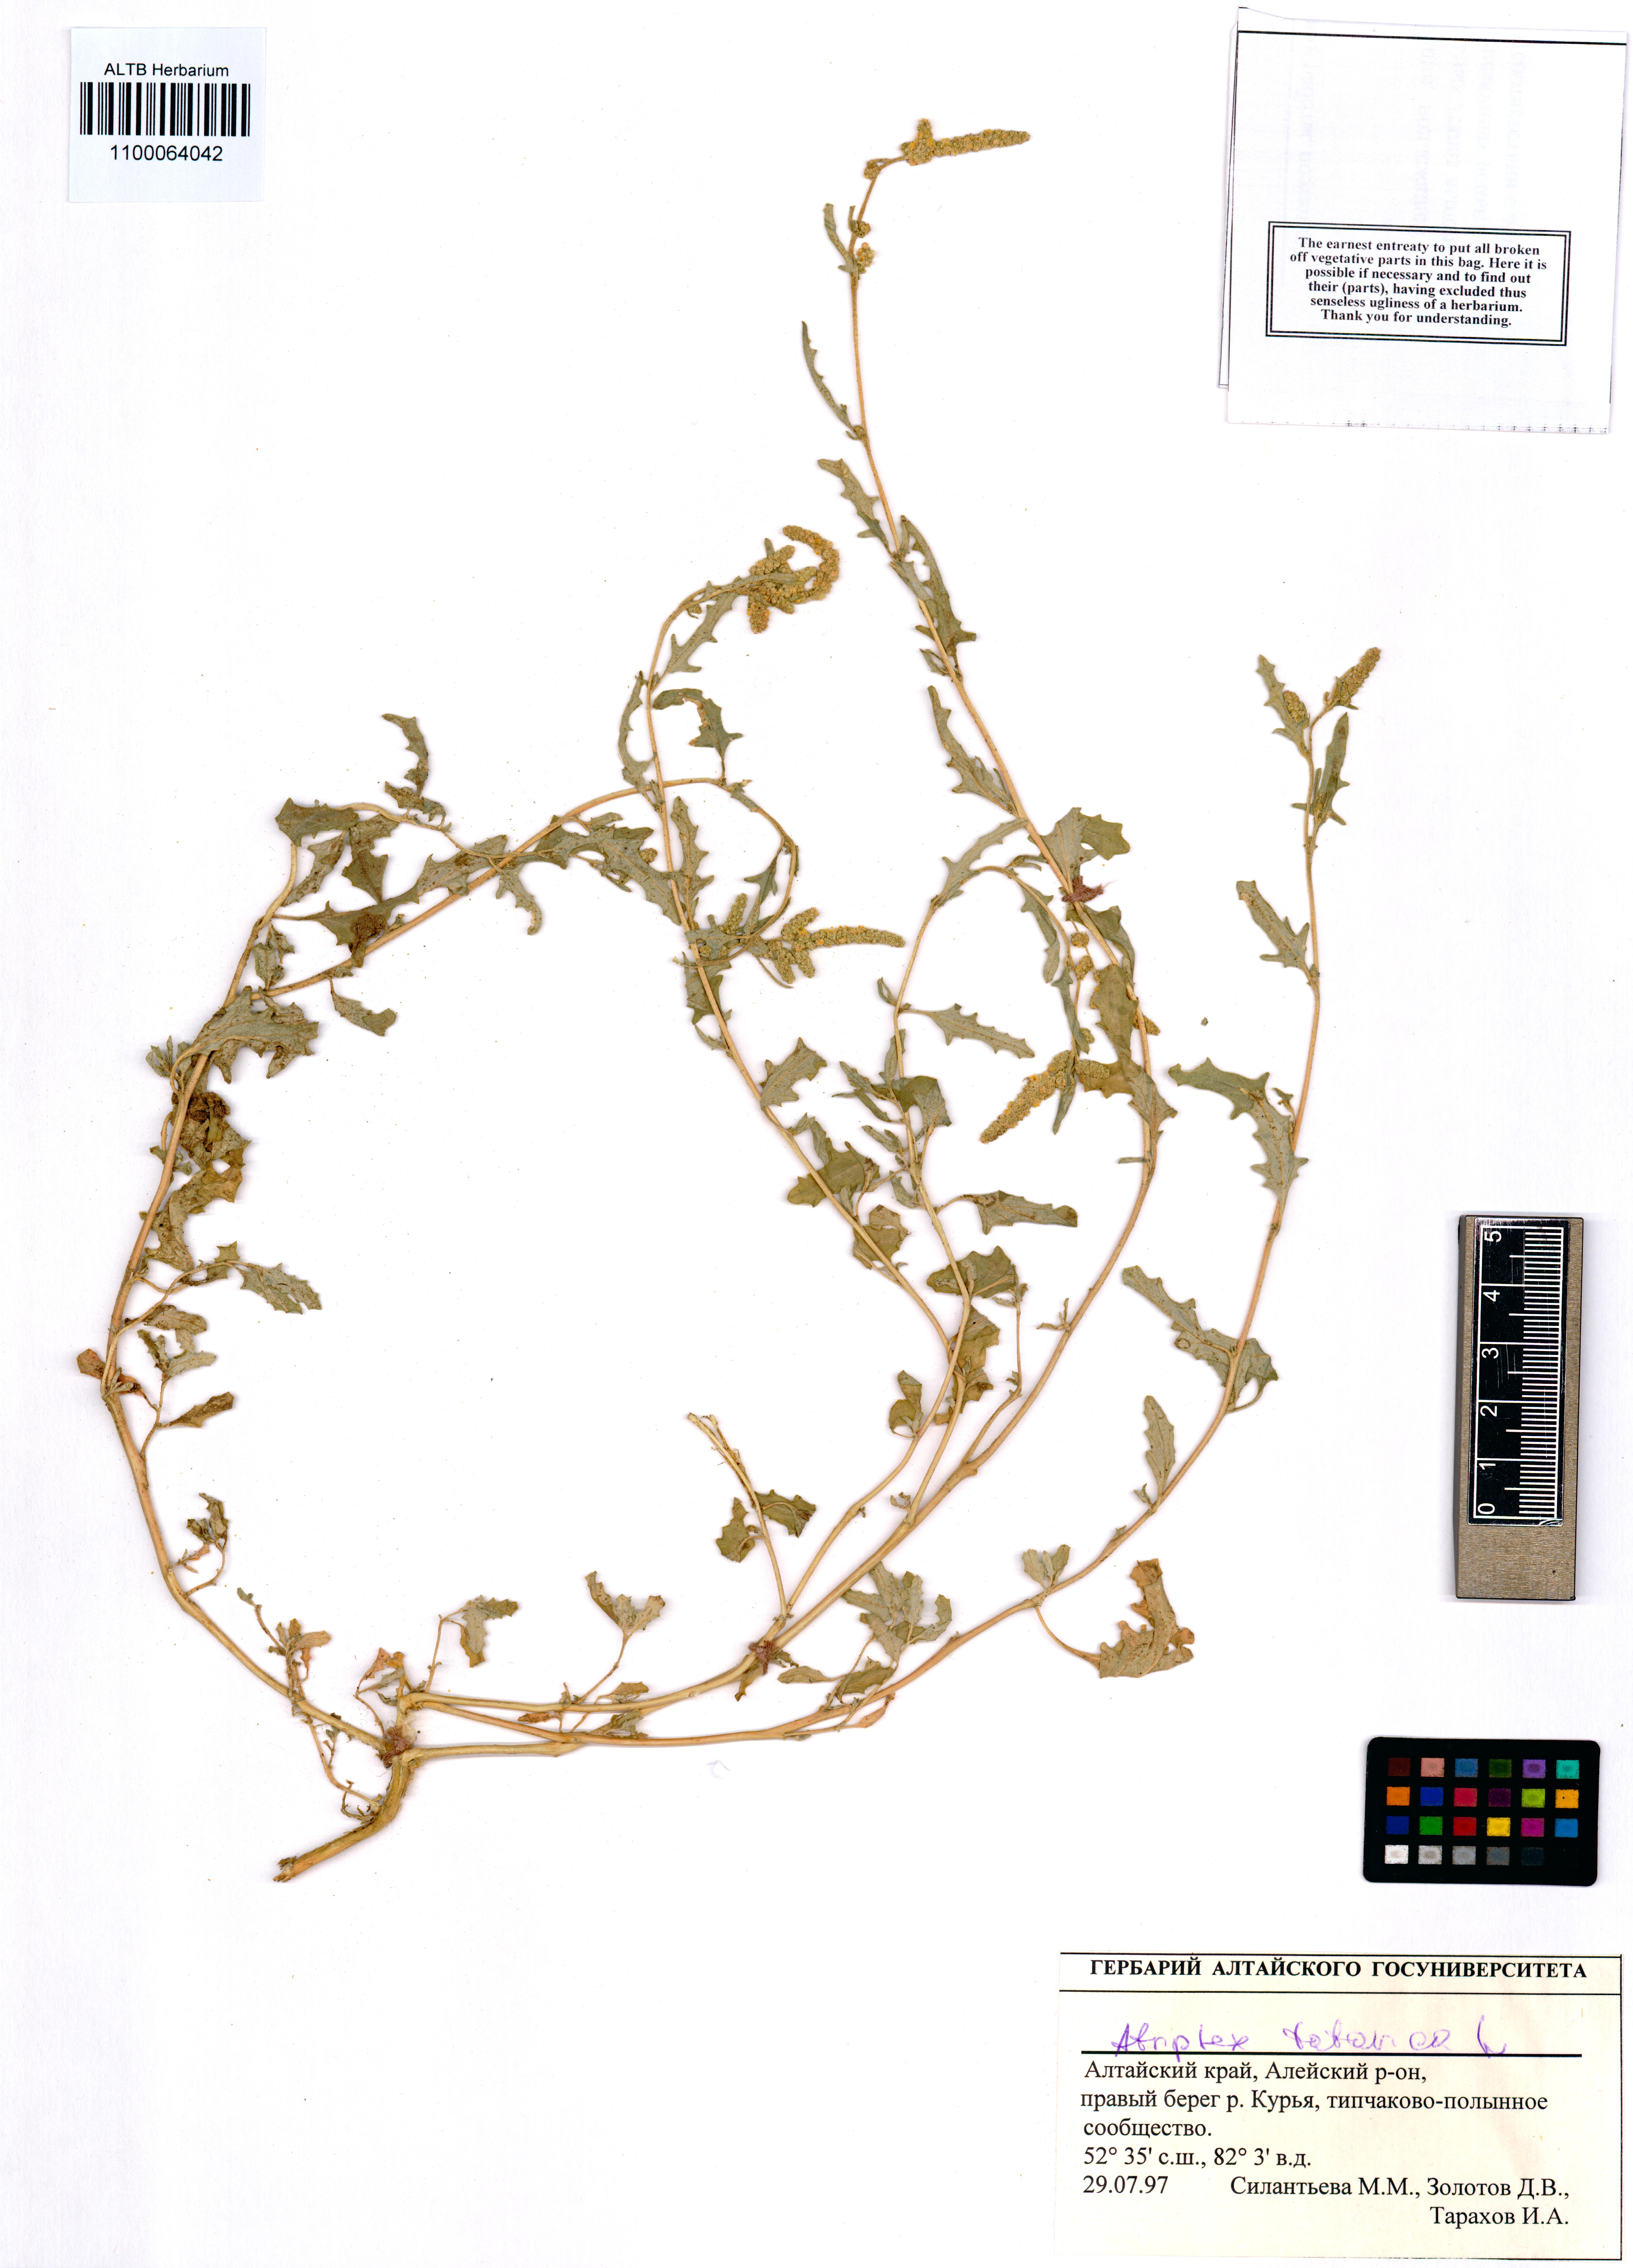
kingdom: Plantae
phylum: Tracheophyta
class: Magnoliopsida
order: Caryophyllales
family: Amaranthaceae
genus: Atriplex
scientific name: Atriplex tatarica
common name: Tatarian orache
